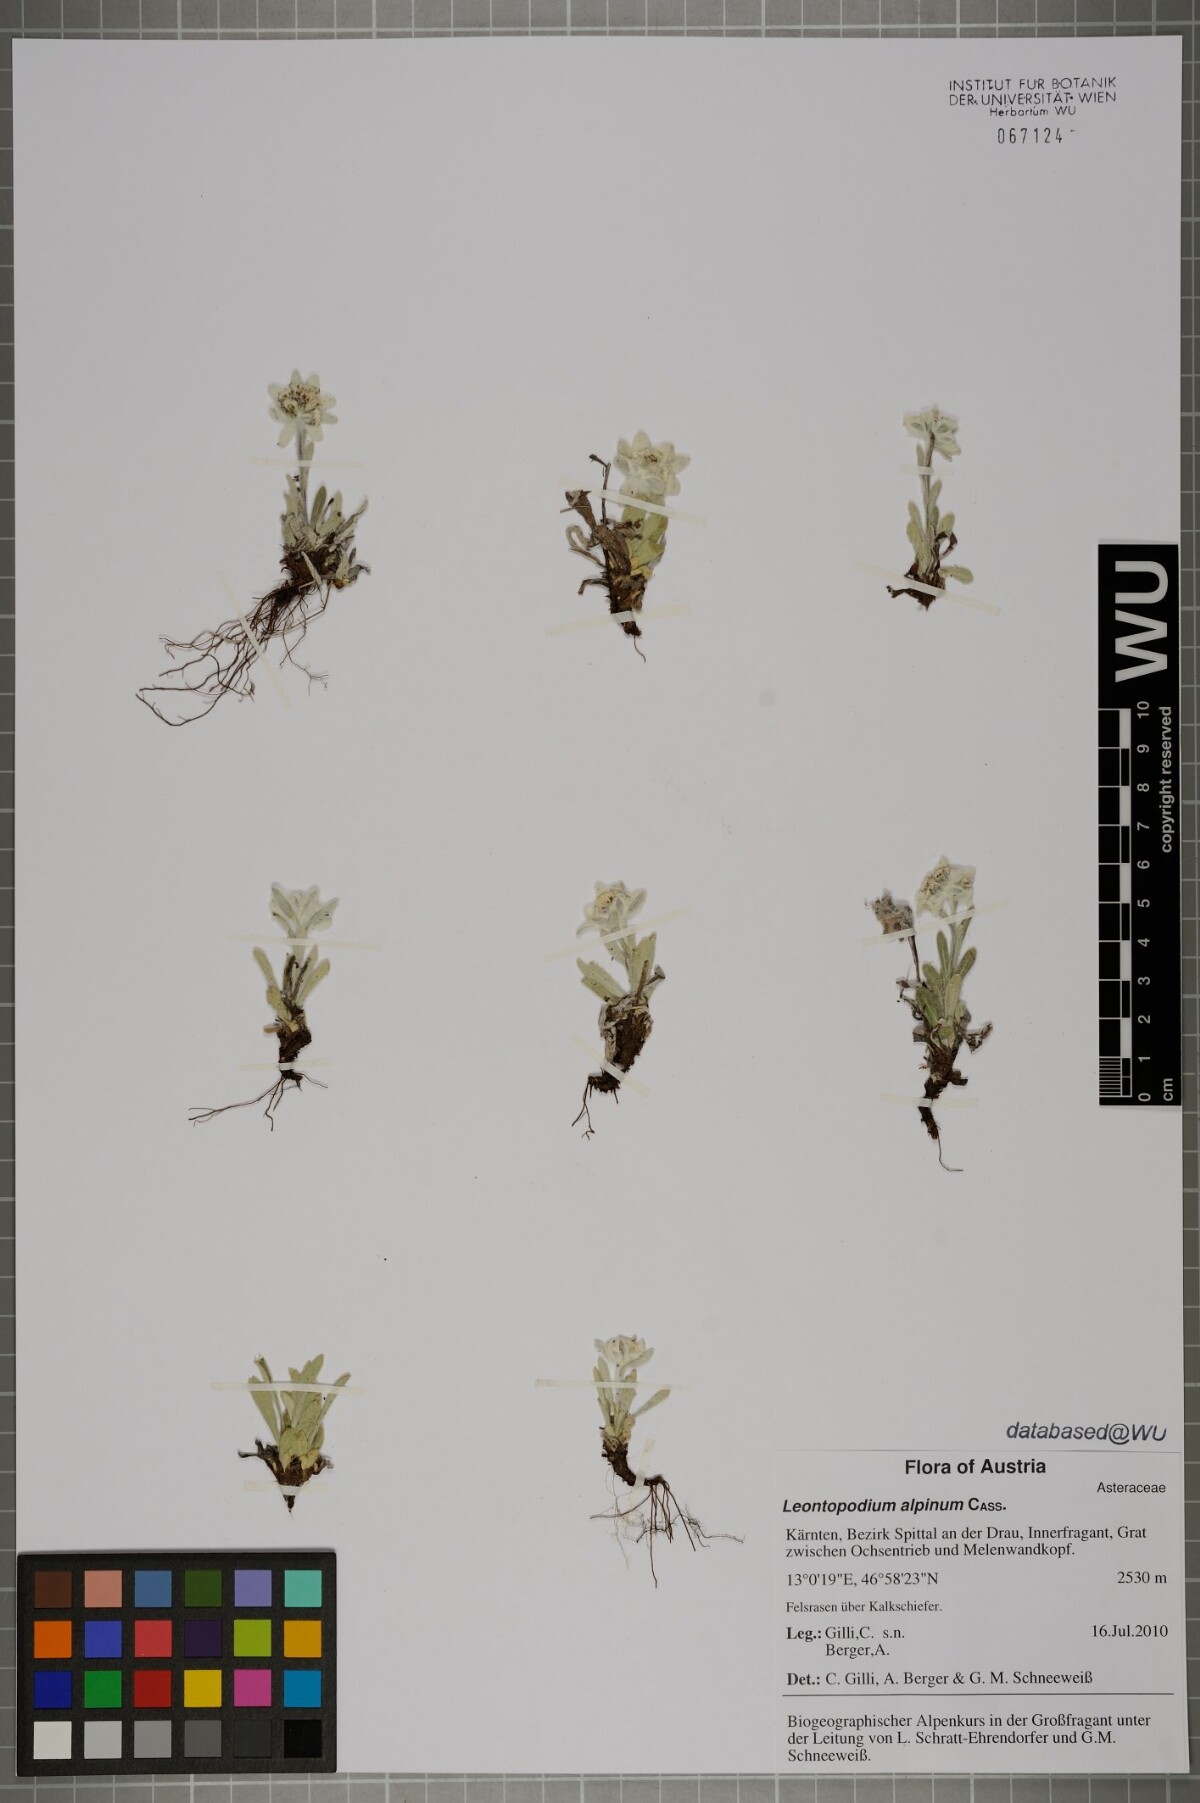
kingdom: Plantae
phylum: Tracheophyta
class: Magnoliopsida
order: Asterales
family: Asteraceae
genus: Leontopodium
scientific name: Leontopodium nivale
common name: Edelweiss
